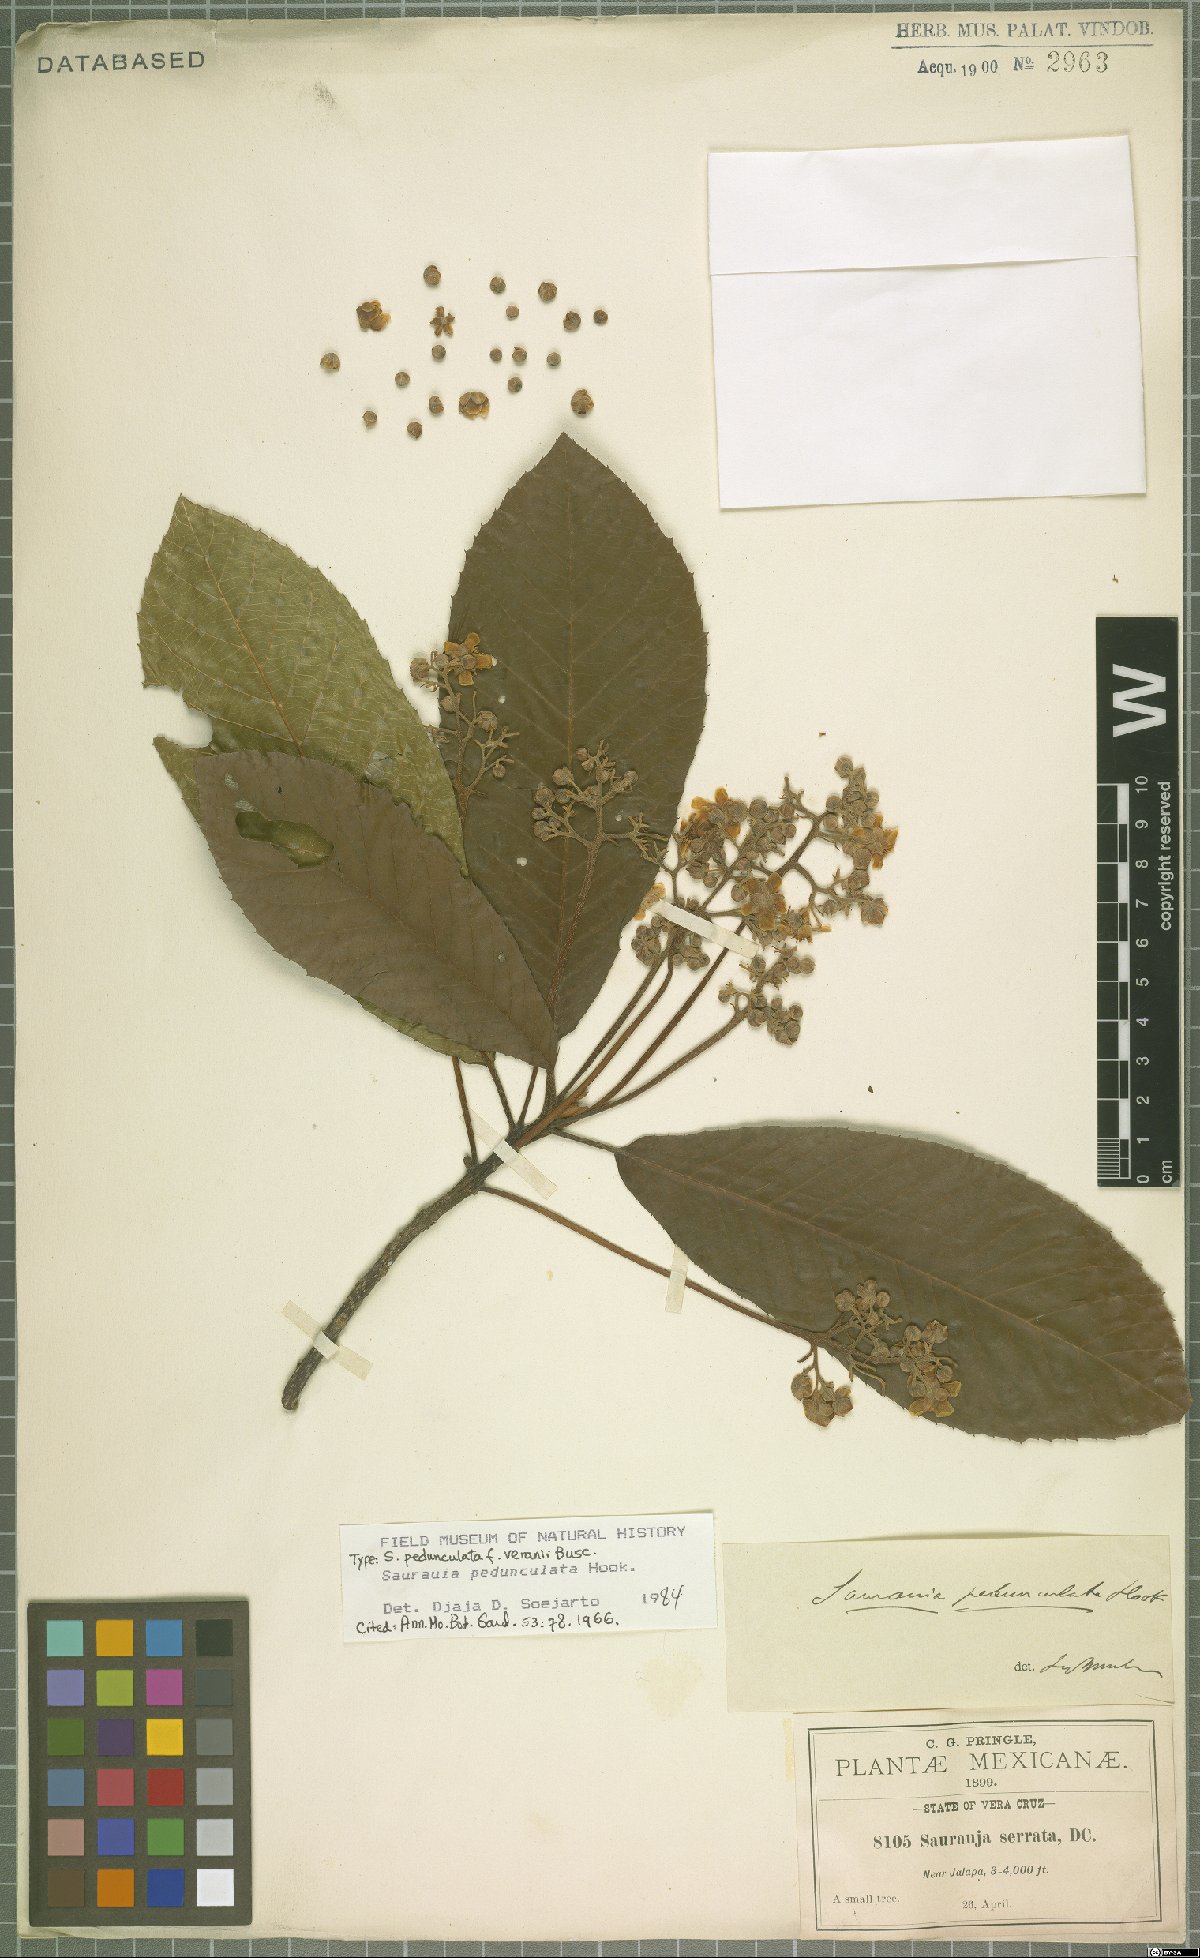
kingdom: Plantae
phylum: Tracheophyta
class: Magnoliopsida
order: Ericales
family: Actinidiaceae
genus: Saurauia
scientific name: Saurauia pedunculata
